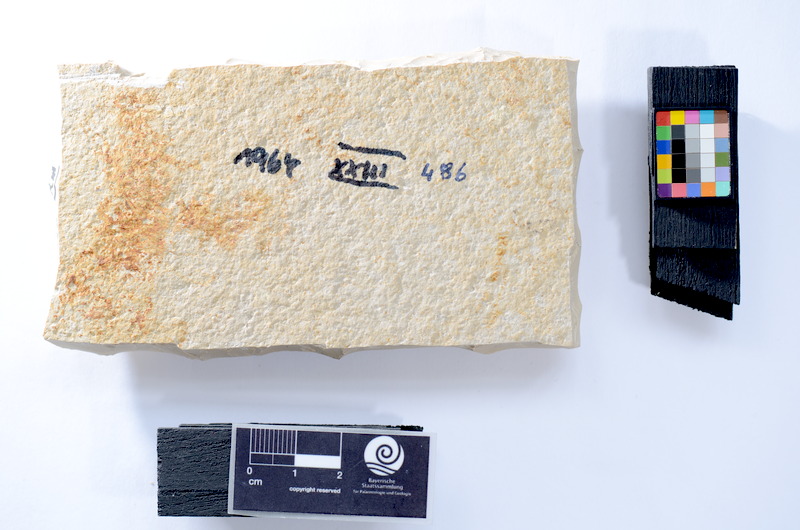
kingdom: Animalia
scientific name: Animalia
